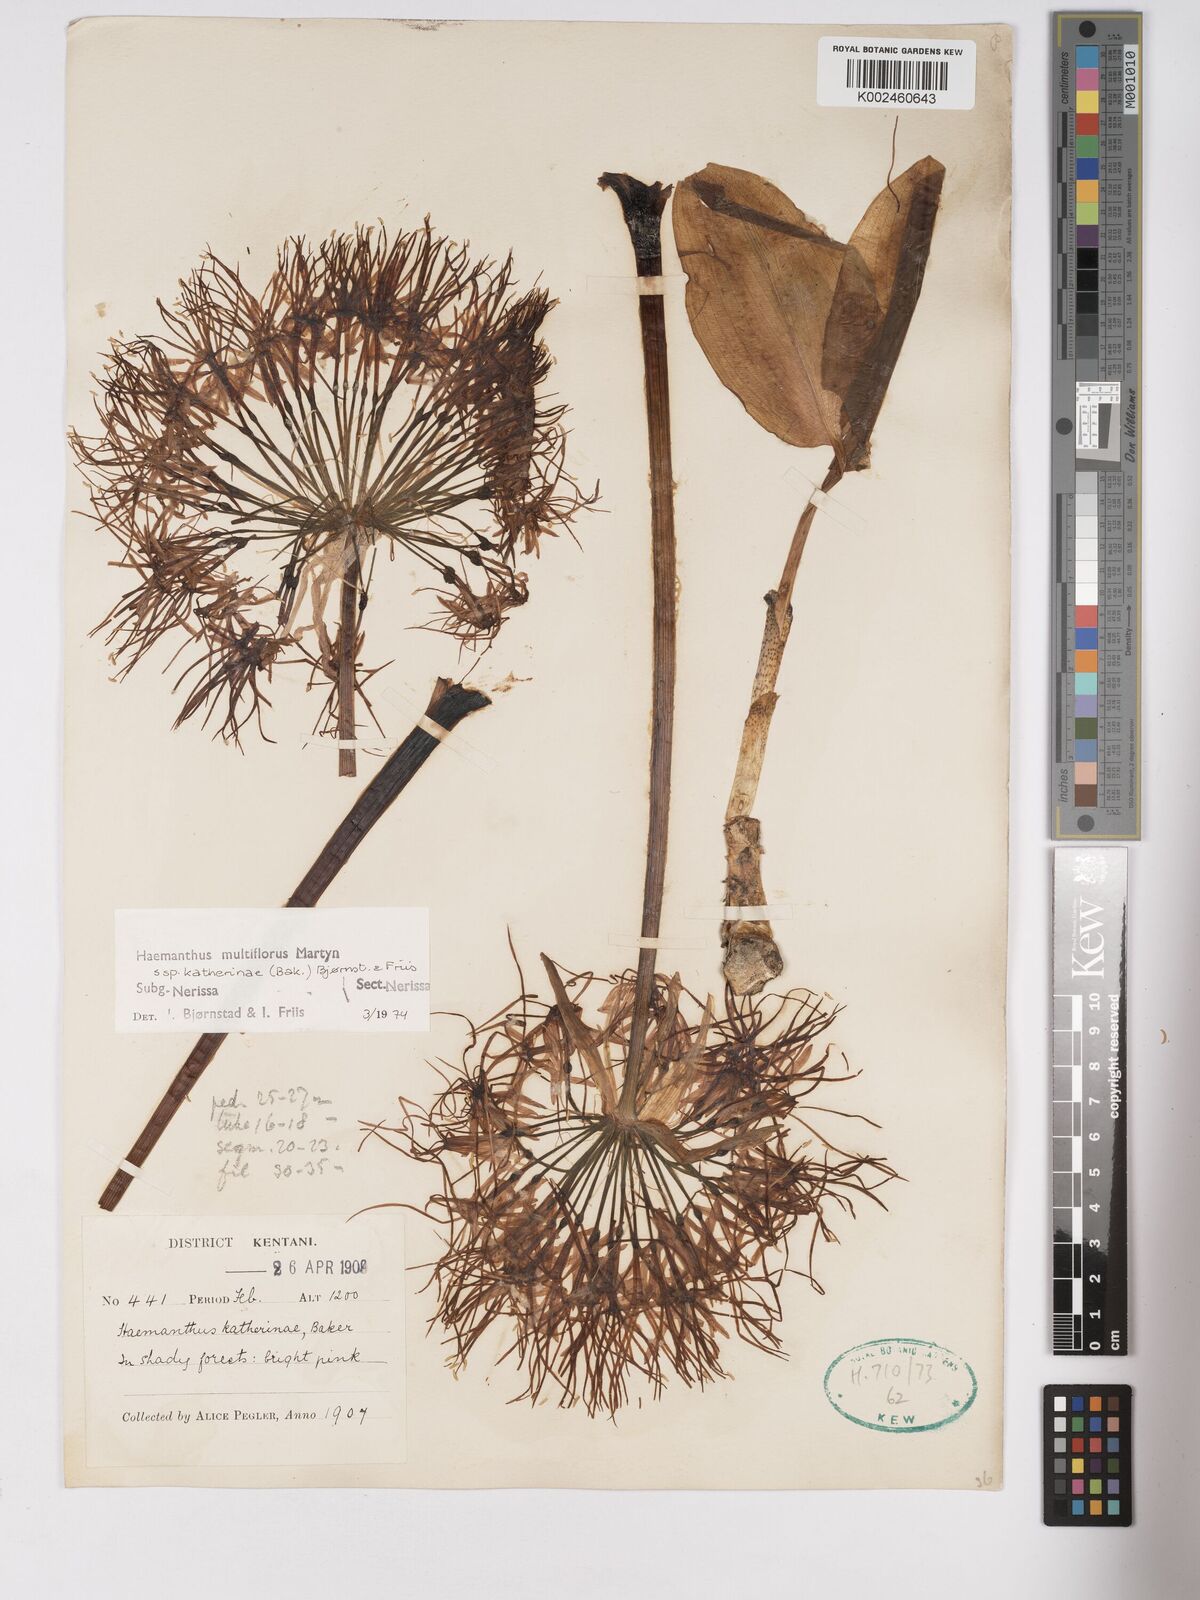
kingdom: Plantae
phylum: Tracheophyta
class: Liliopsida
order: Asparagales
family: Amaryllidaceae
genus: Scadoxus
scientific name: Scadoxus multiflorus
